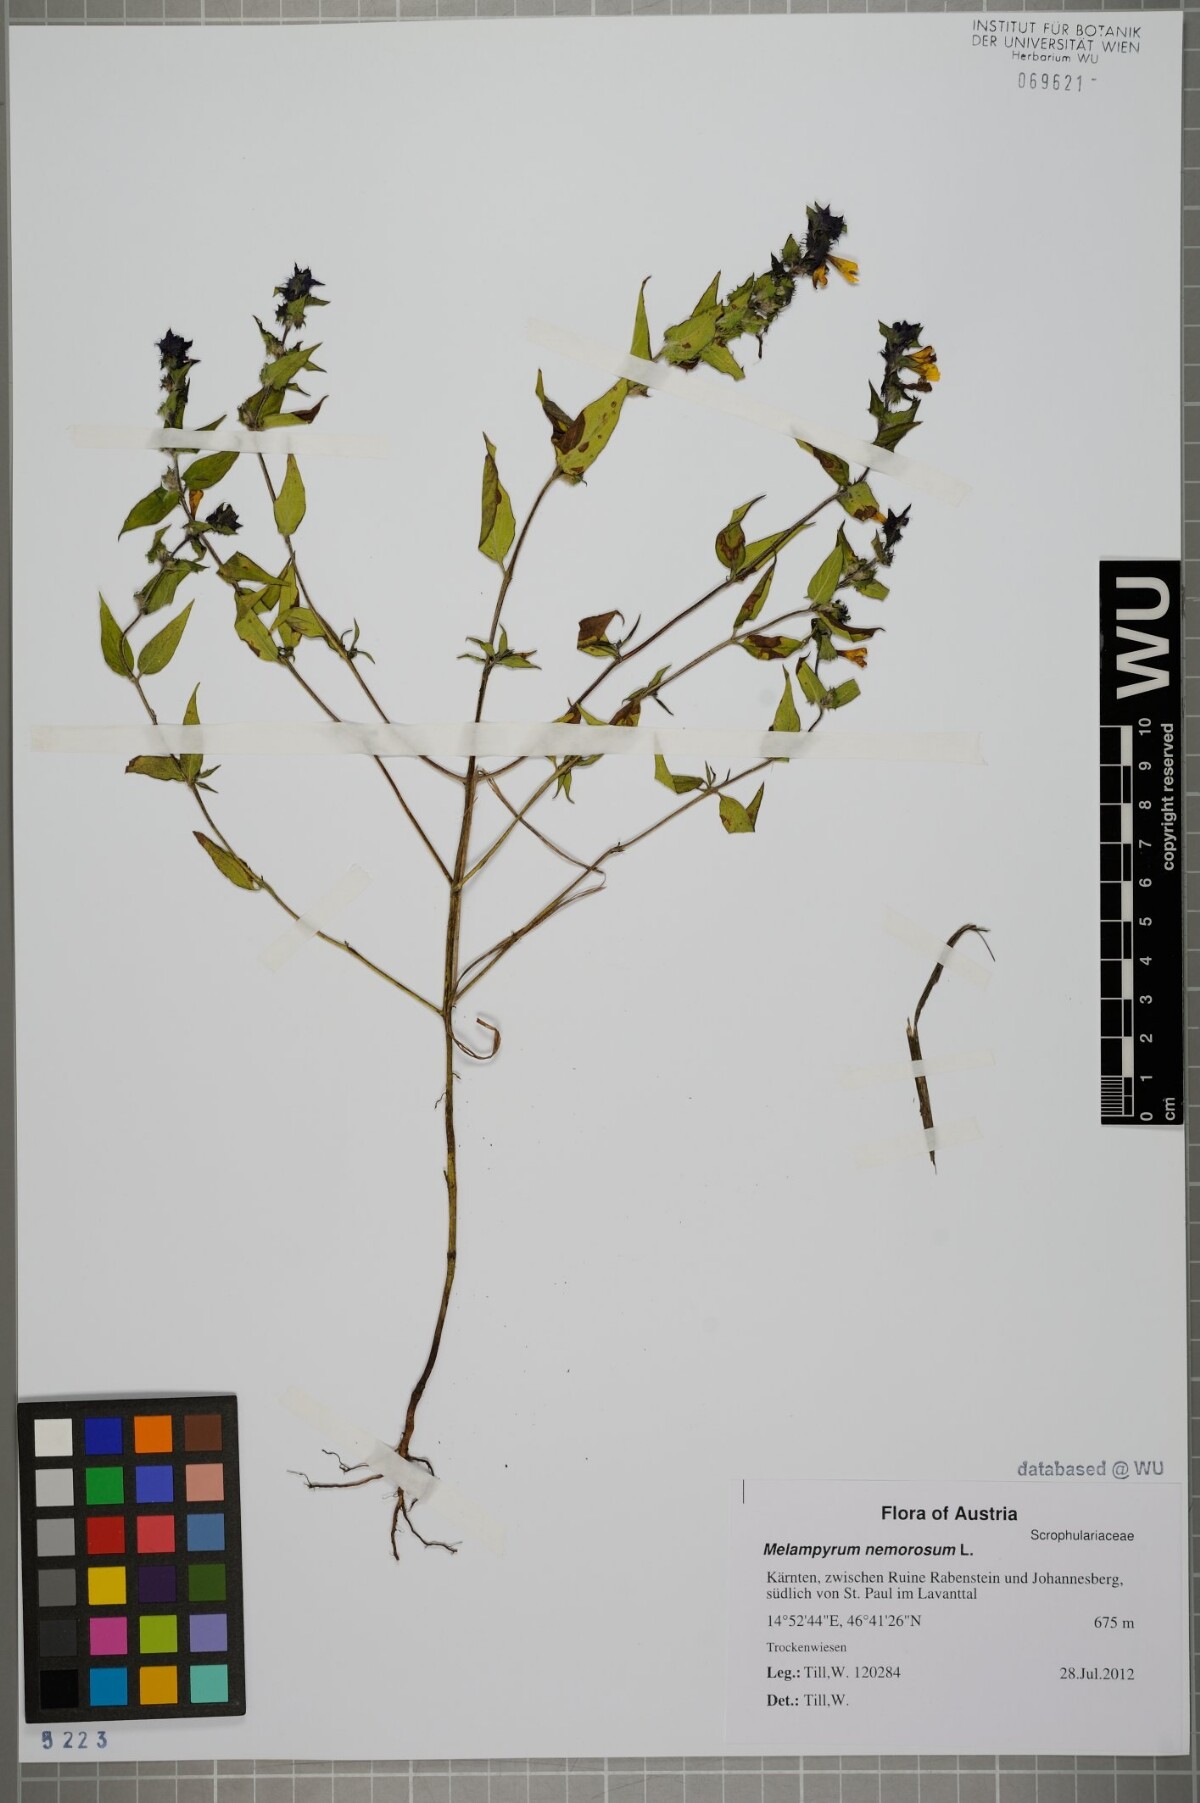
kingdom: Plantae
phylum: Tracheophyta
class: Magnoliopsida
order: Lamiales
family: Orobanchaceae
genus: Melampyrum
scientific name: Melampyrum nemorosum
